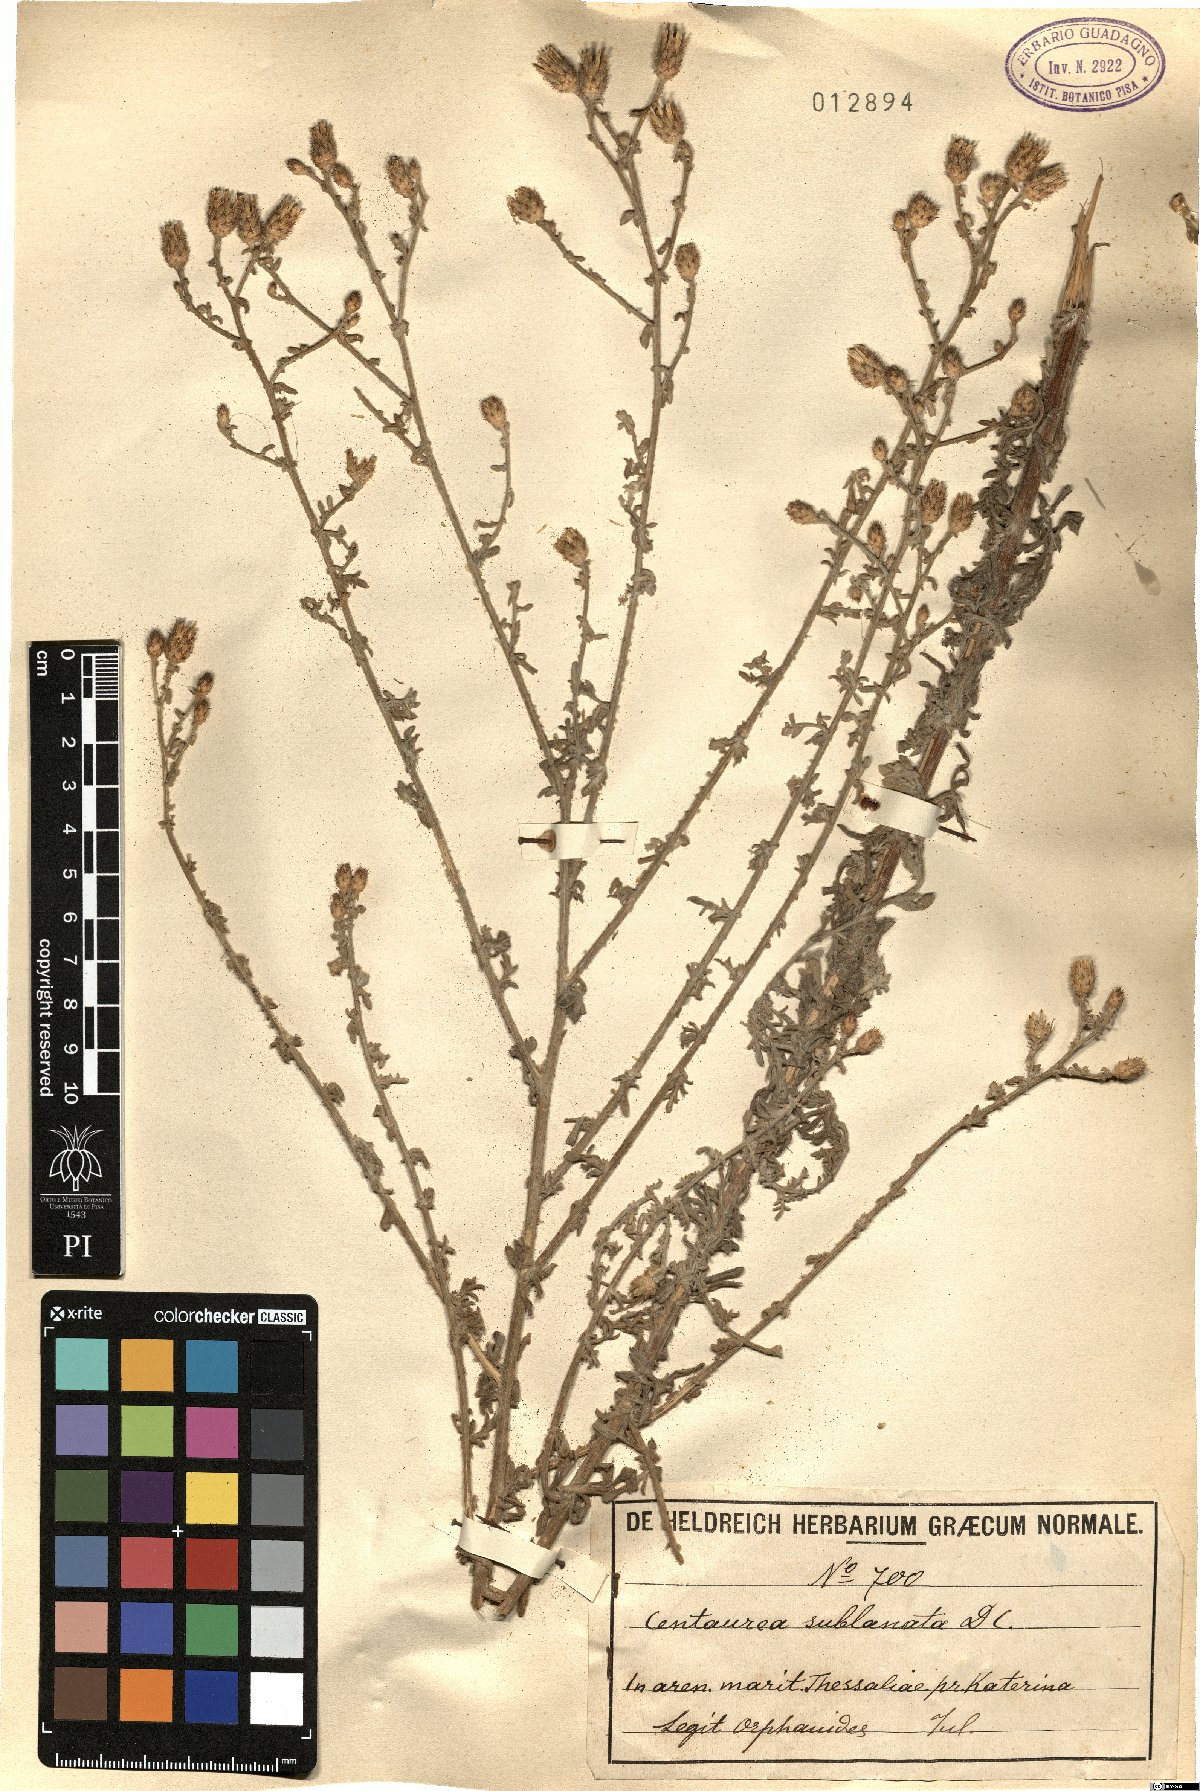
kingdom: Plantae
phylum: Tracheophyta
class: Magnoliopsida
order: Asterales
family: Asteraceae
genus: Centaurea
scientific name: Centaurea sublanata
